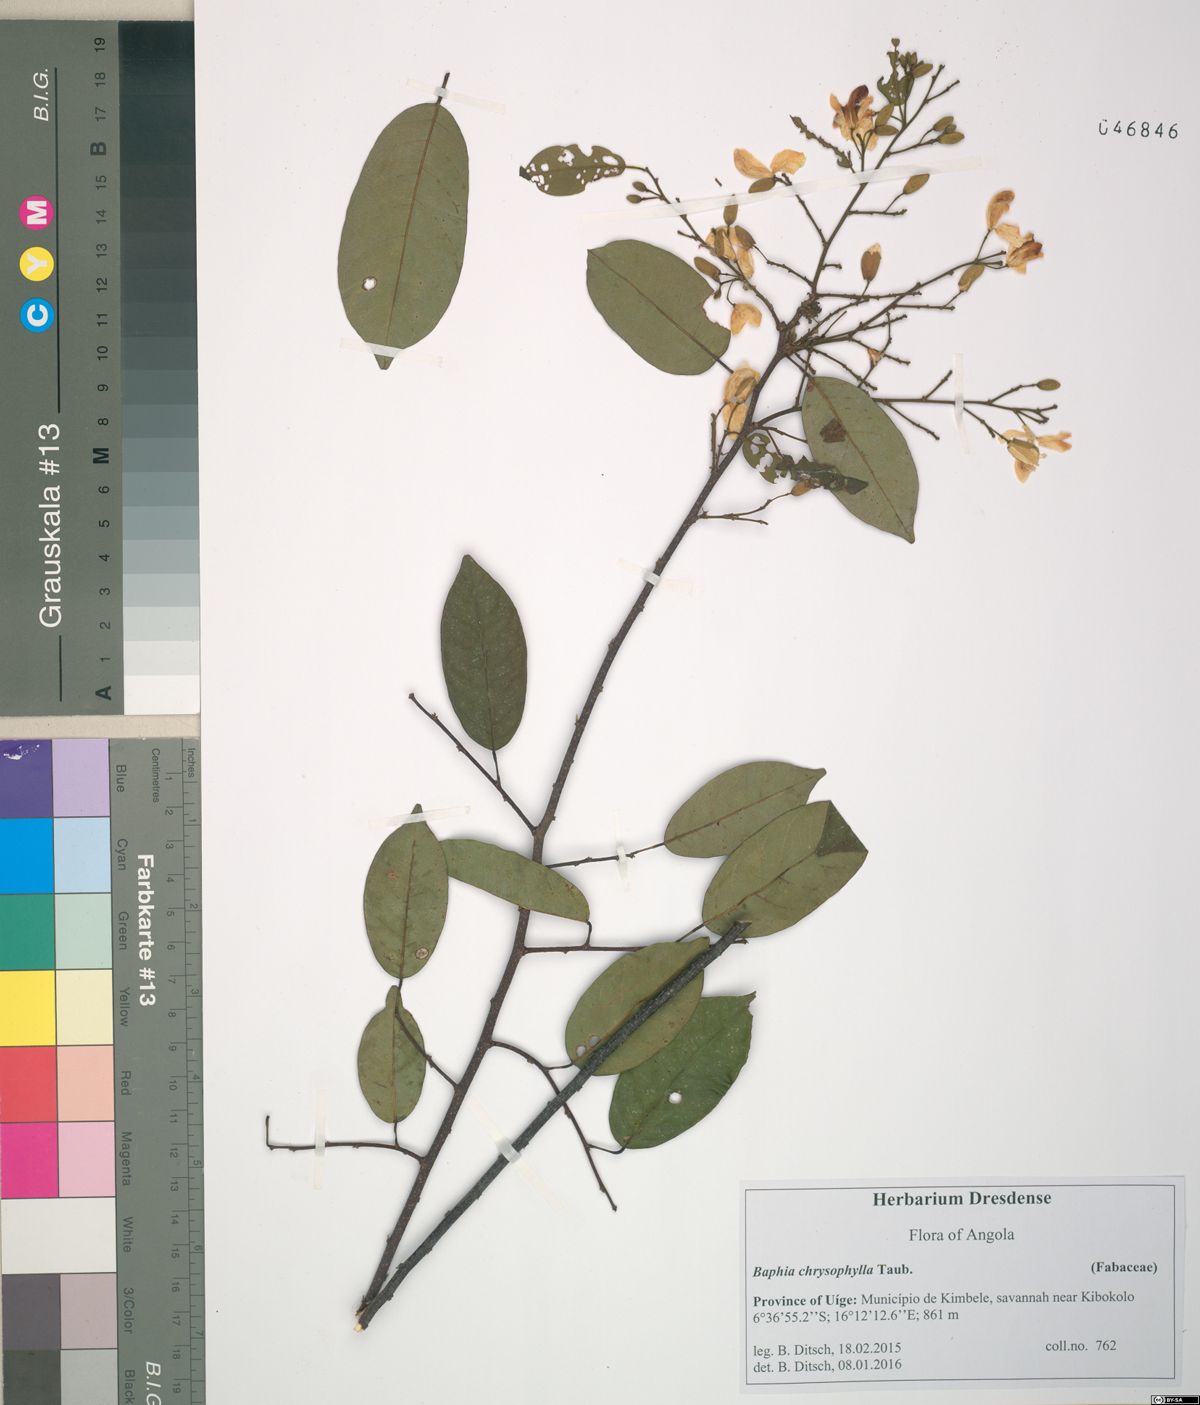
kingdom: Plantae
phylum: Tracheophyta
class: Magnoliopsida
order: Fabales
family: Fabaceae
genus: Baphia
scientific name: Baphia chrysophylla
